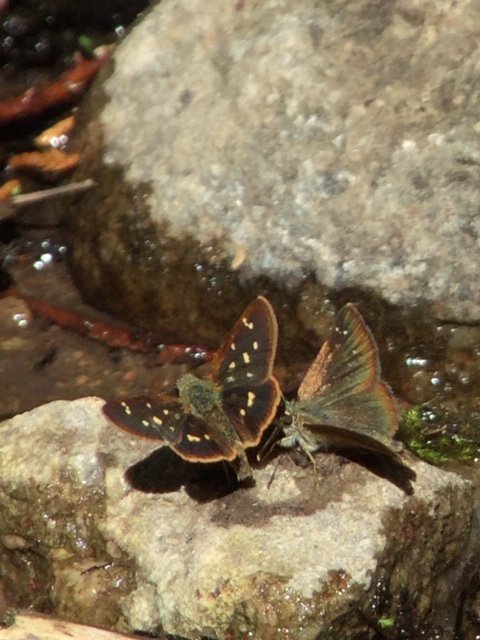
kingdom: Animalia
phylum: Arthropoda
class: Insecta
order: Lepidoptera
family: Hesperiidae
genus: Piruna
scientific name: Piruna pirus
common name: Russet Skipperling
